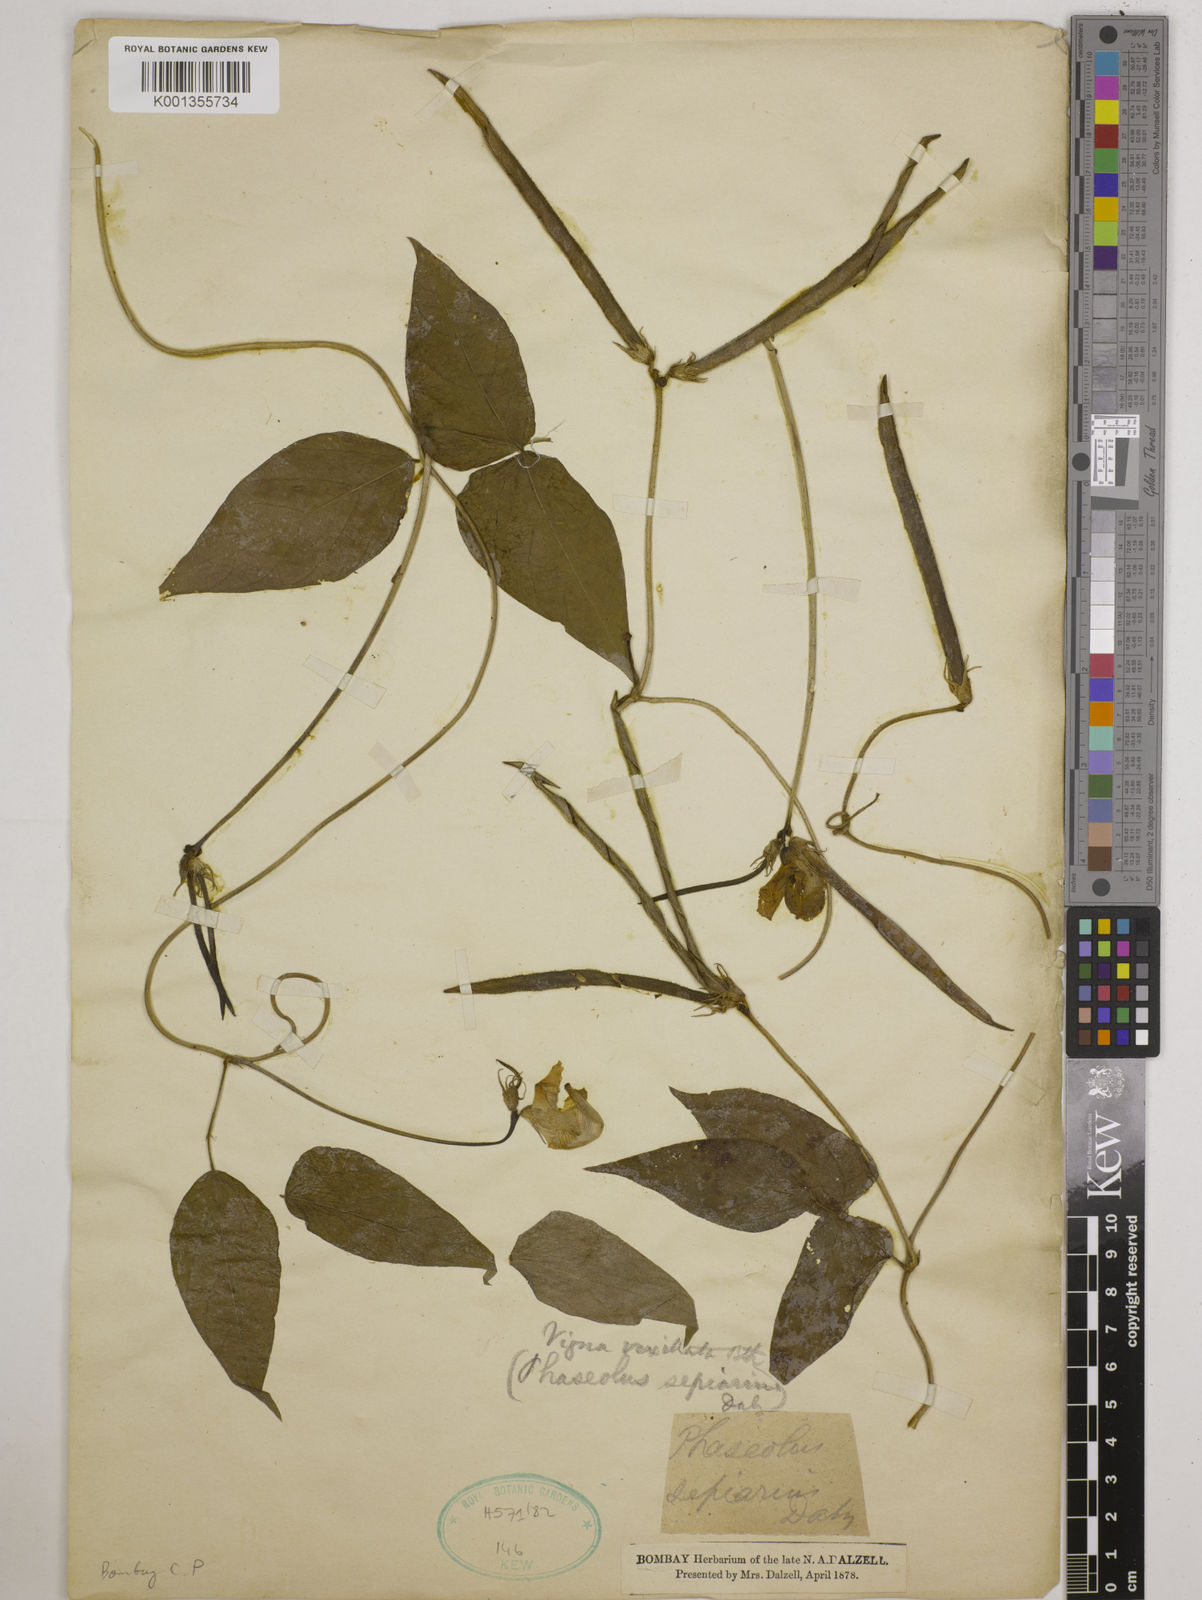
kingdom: Plantae
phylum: Tracheophyta
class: Magnoliopsida
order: Fabales
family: Fabaceae
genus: Vigna
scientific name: Vigna vexillata
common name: Zombi pea
